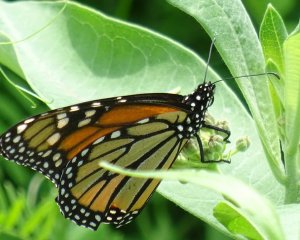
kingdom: Animalia
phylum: Arthropoda
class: Insecta
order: Lepidoptera
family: Nymphalidae
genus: Danaus
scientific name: Danaus plexippus
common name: Monarch
